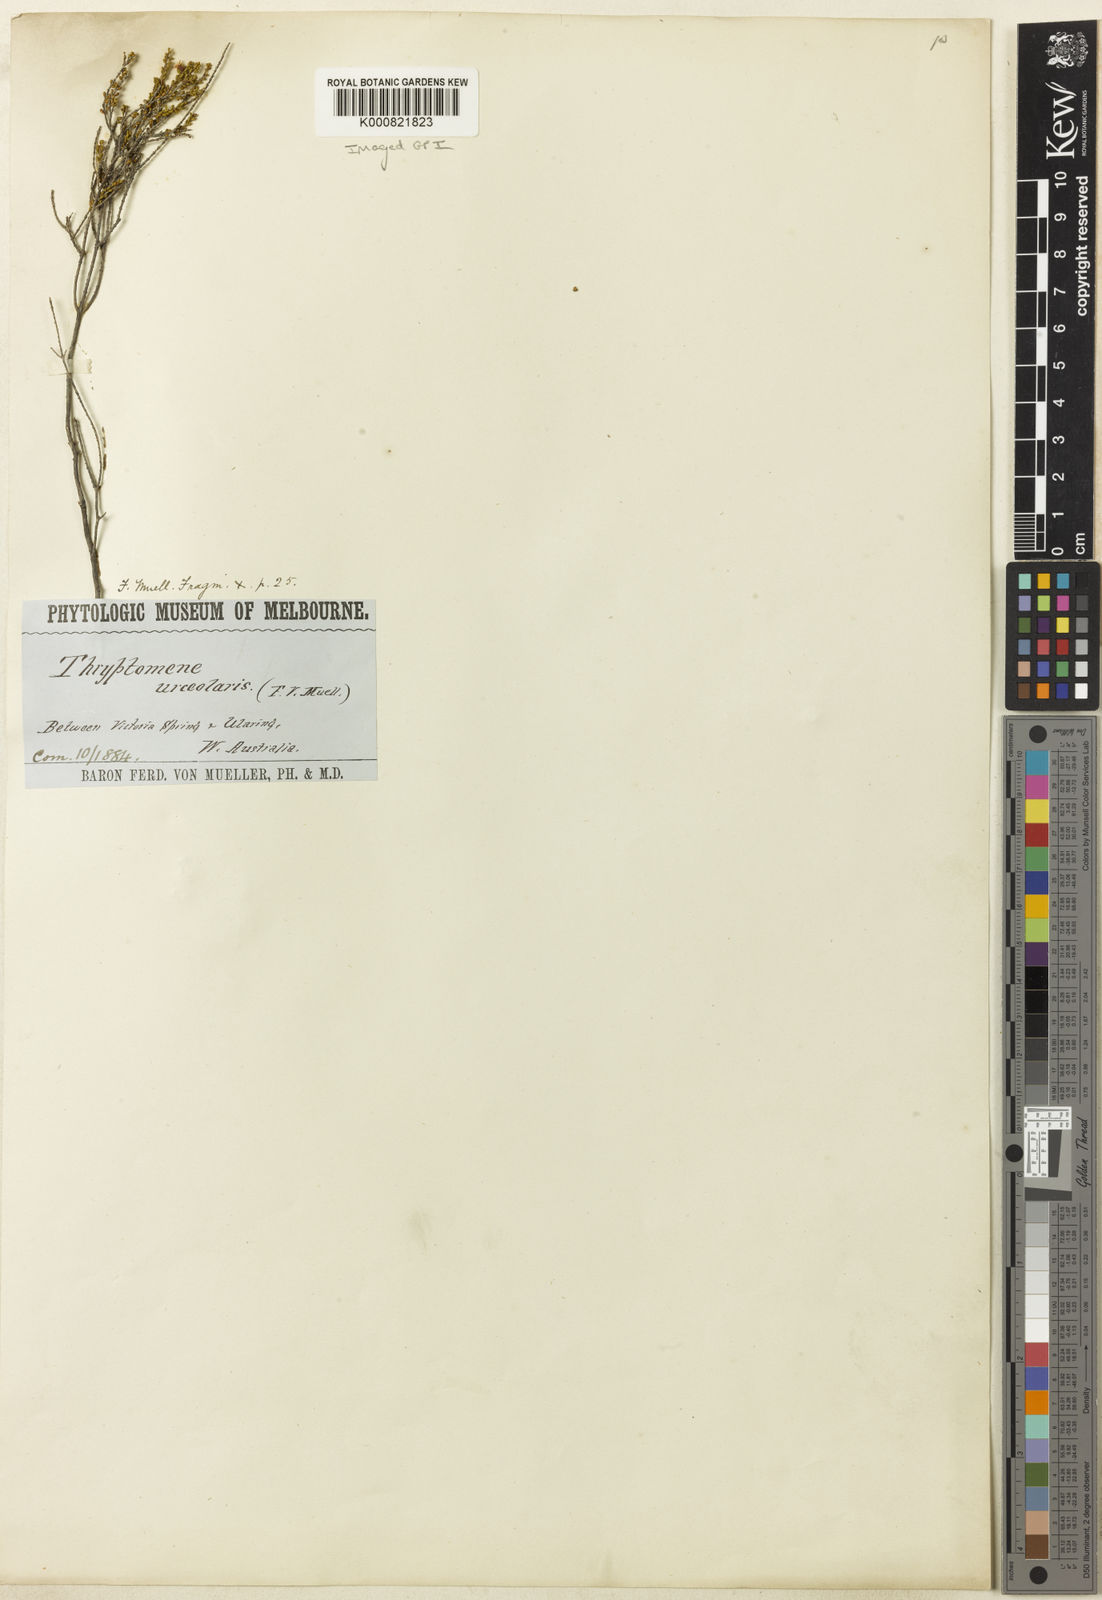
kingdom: Plantae
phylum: Tracheophyta
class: Magnoliopsida
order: Myrtales
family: Myrtaceae
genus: Thryptomene
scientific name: Thryptomene urceolaris
